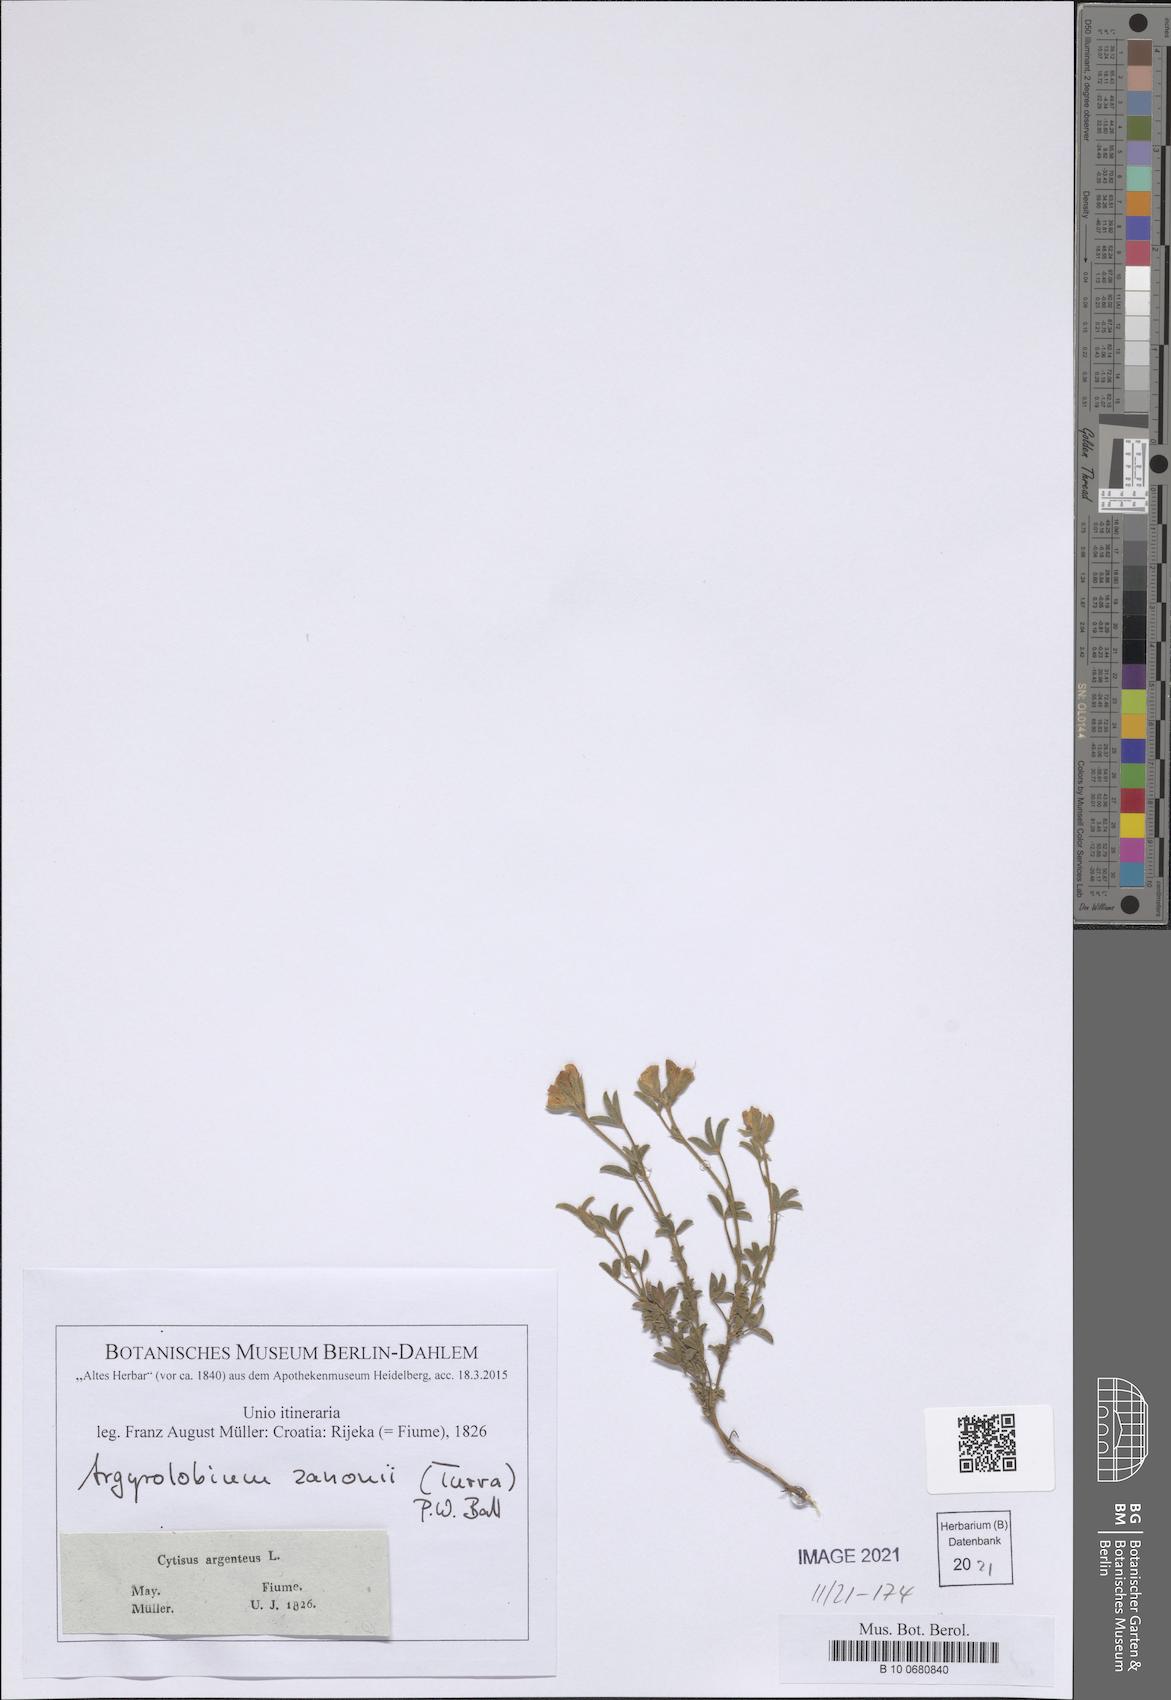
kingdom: Plantae
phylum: Tracheophyta
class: Magnoliopsida
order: Fabales
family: Fabaceae
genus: Argyrolobium
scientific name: Argyrolobium zanonii
